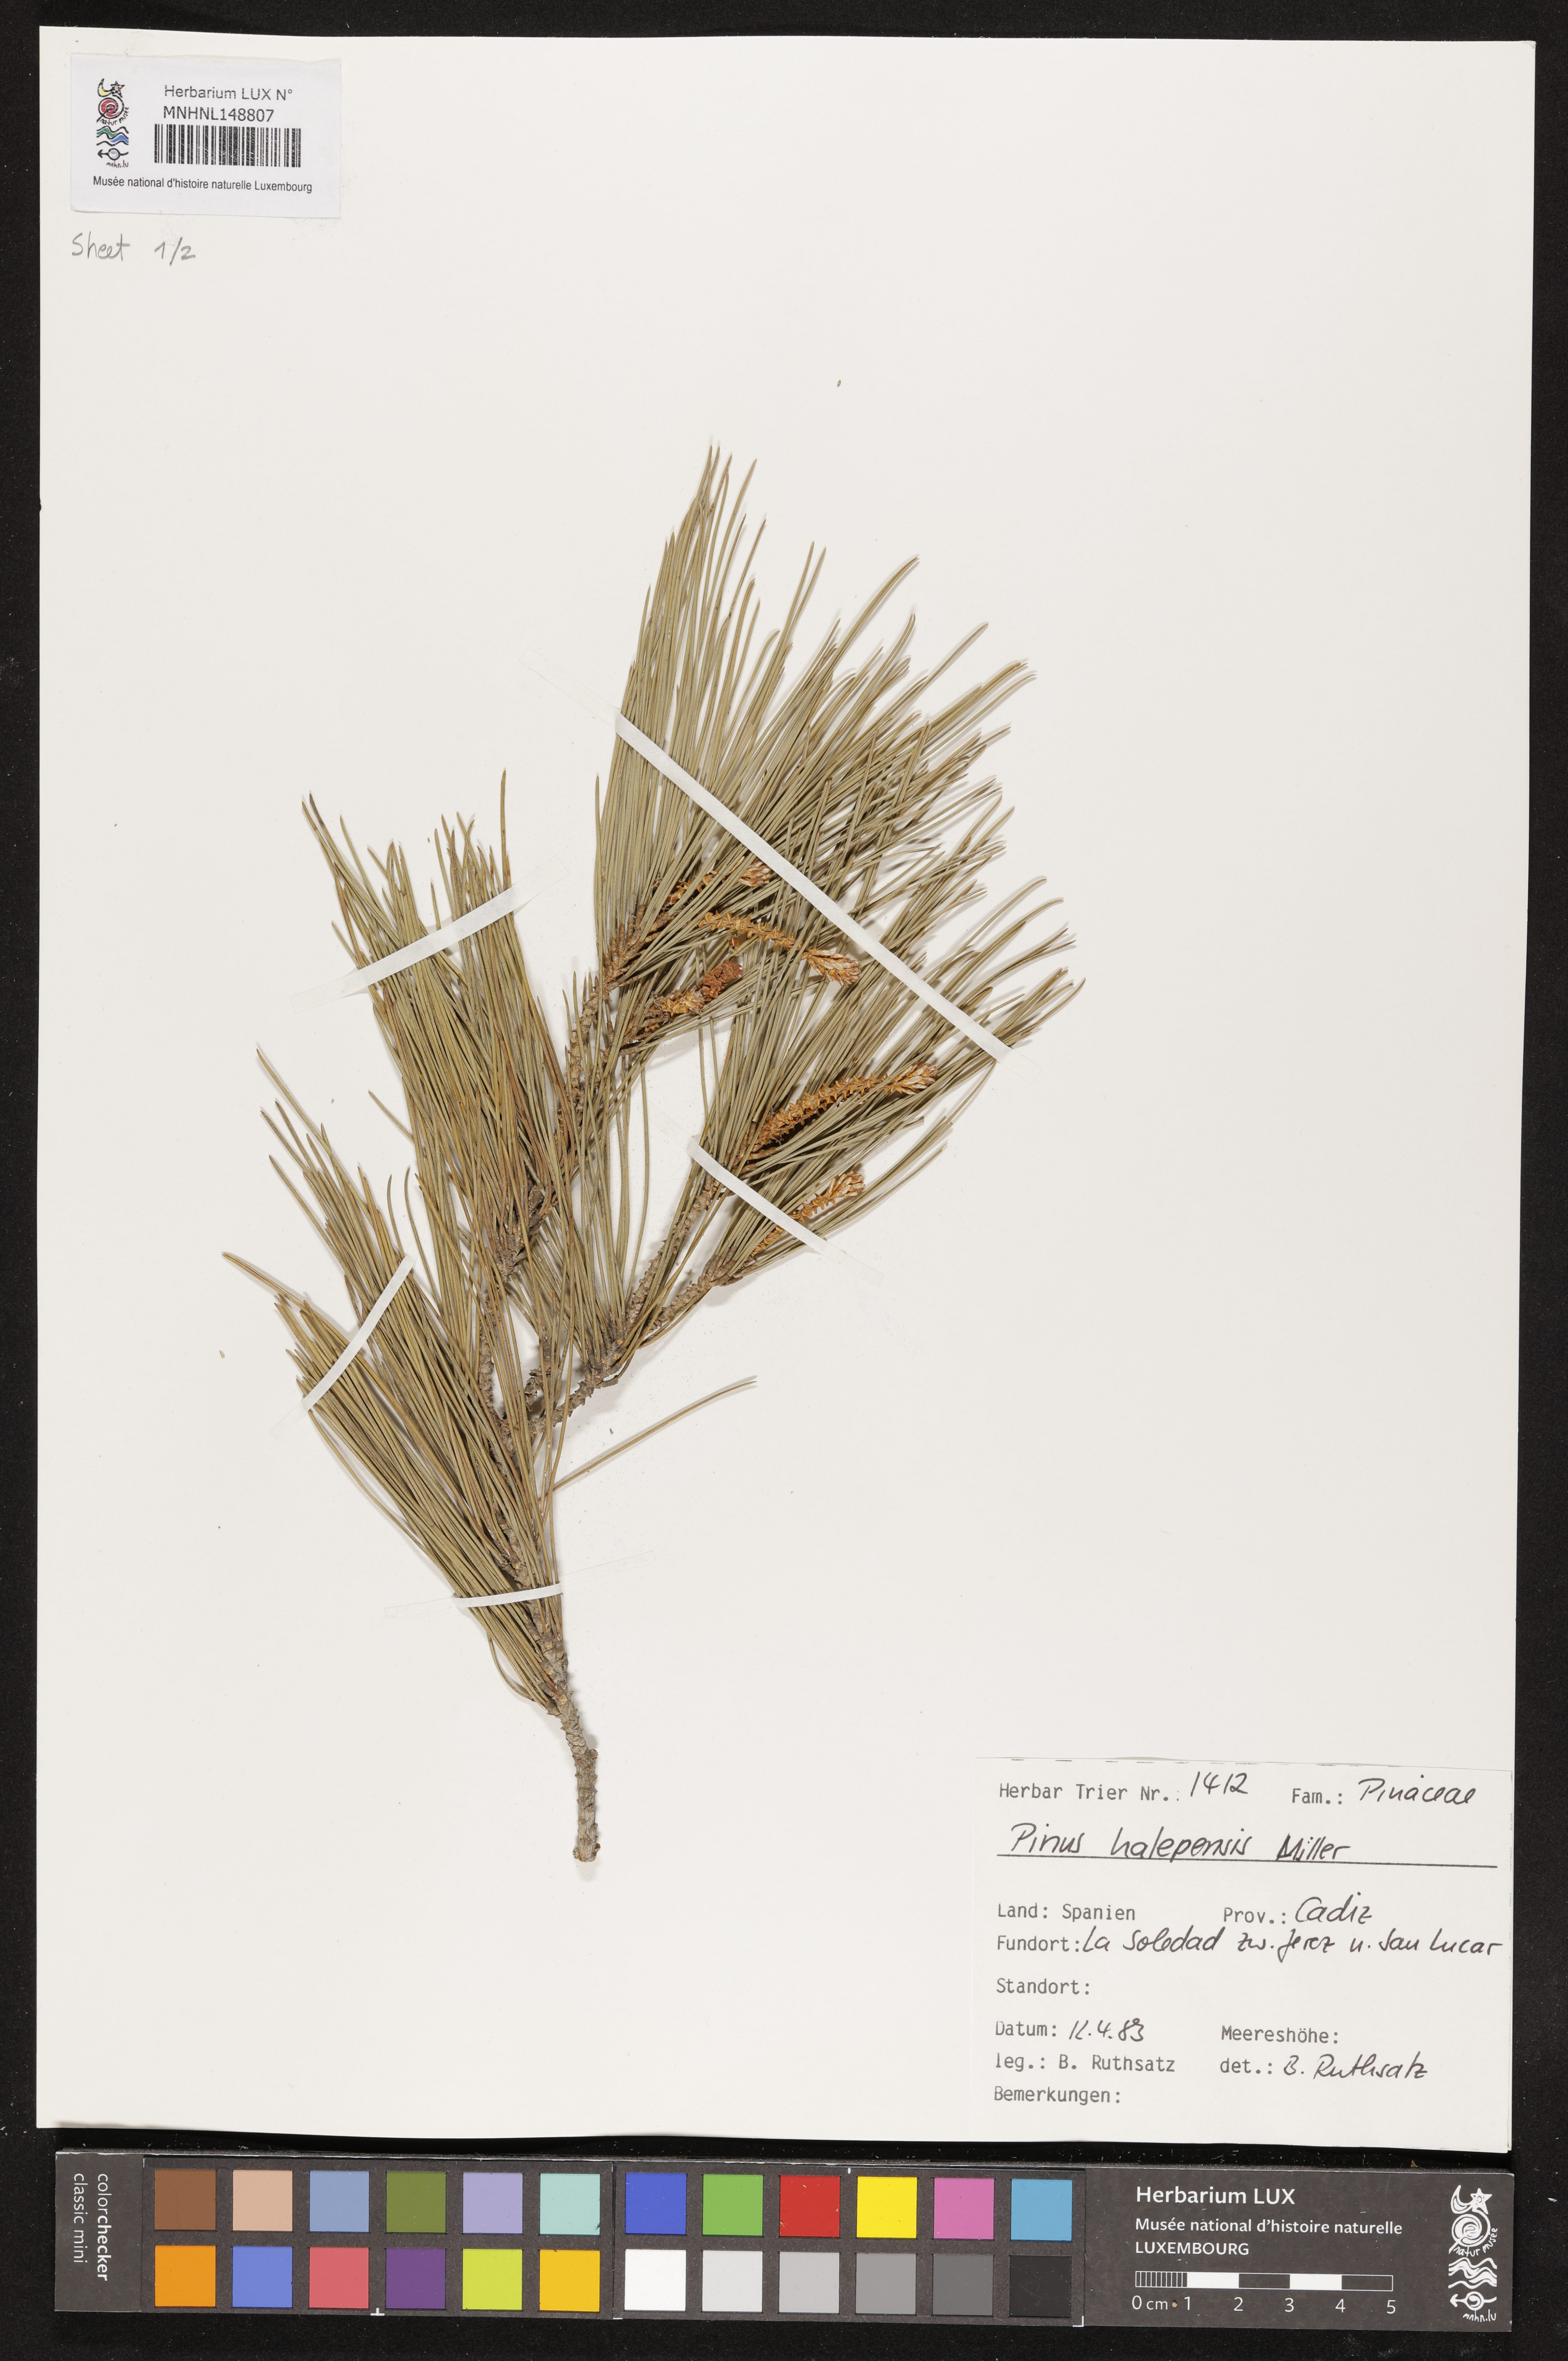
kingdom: Plantae
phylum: Tracheophyta
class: Pinopsida
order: Pinales
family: Pinaceae
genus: Pinus
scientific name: Pinus halepensis
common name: Aleppo pine
